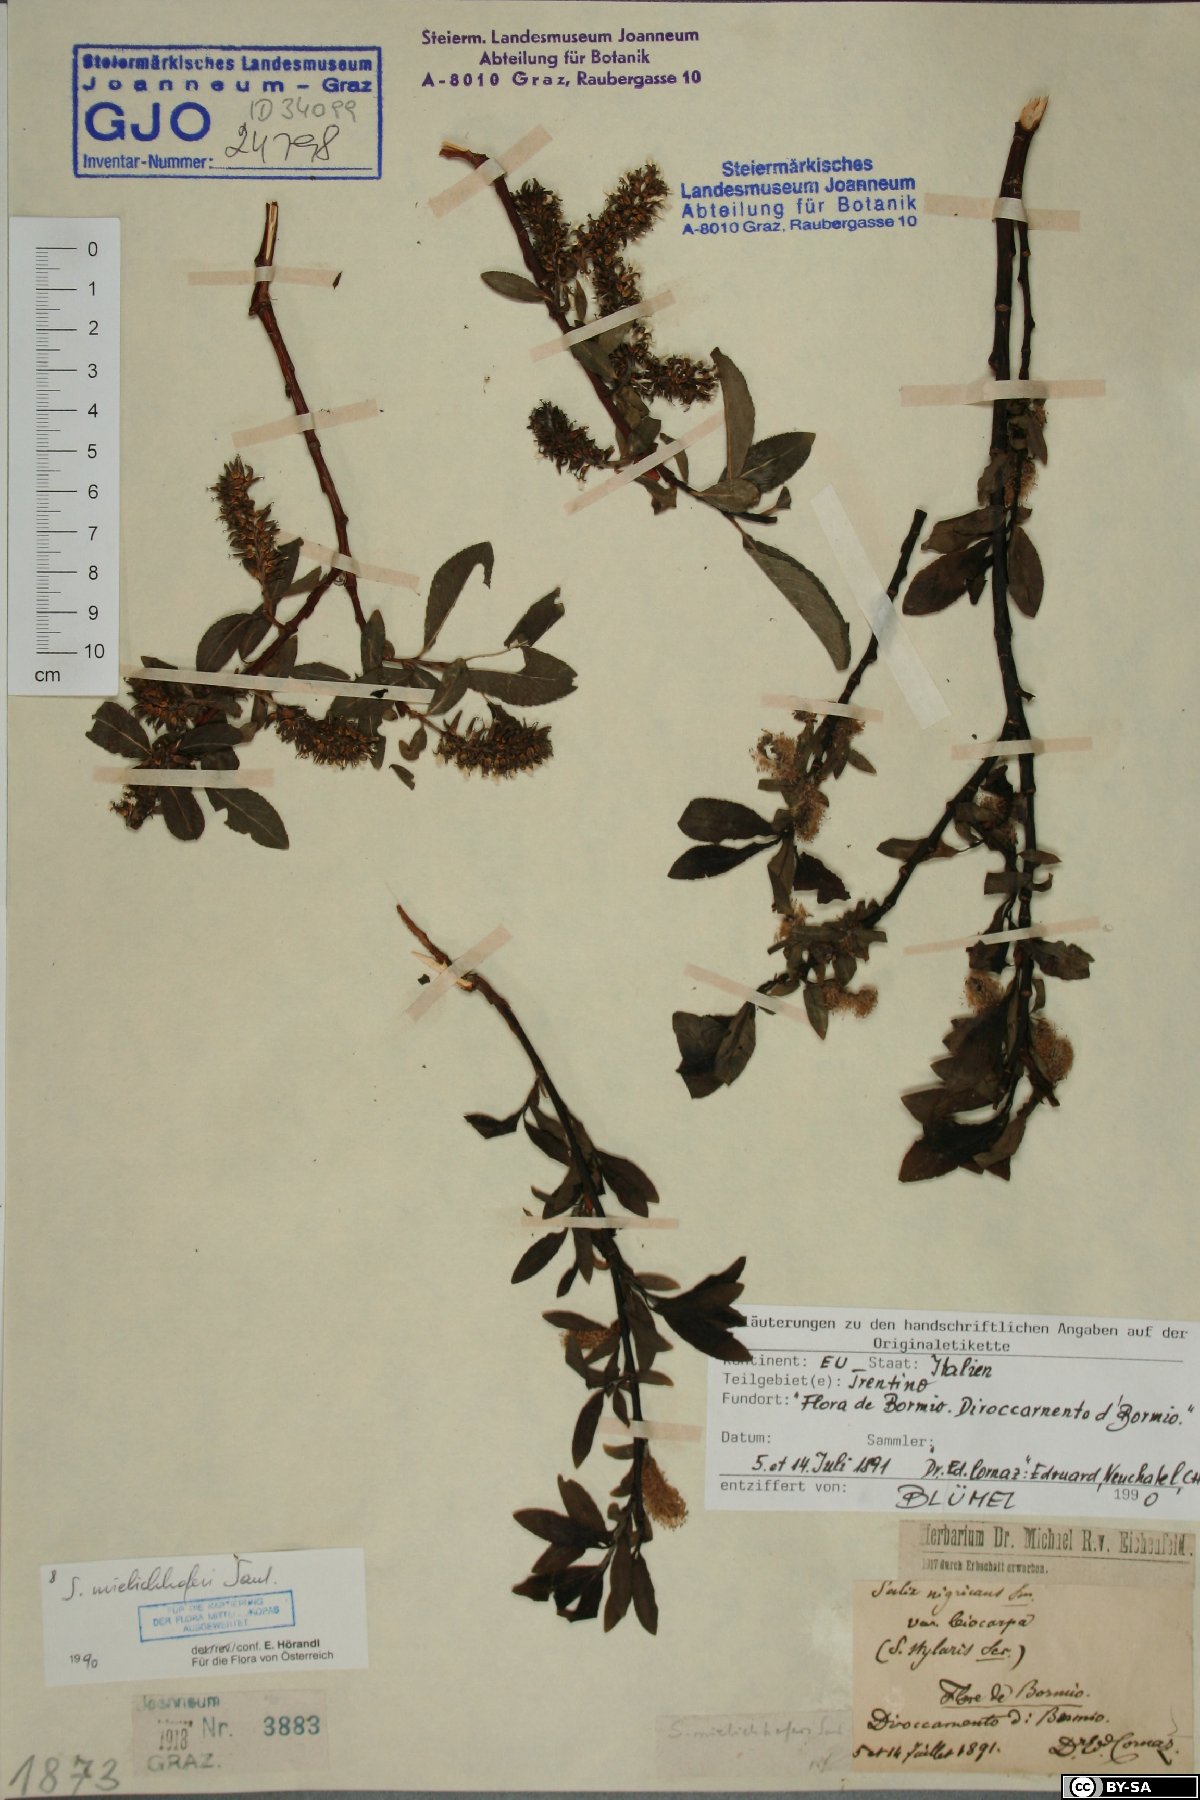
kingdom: Plantae
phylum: Tracheophyta
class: Magnoliopsida
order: Malpighiales
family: Salicaceae
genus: Salix
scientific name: Salix mielichhoferi
